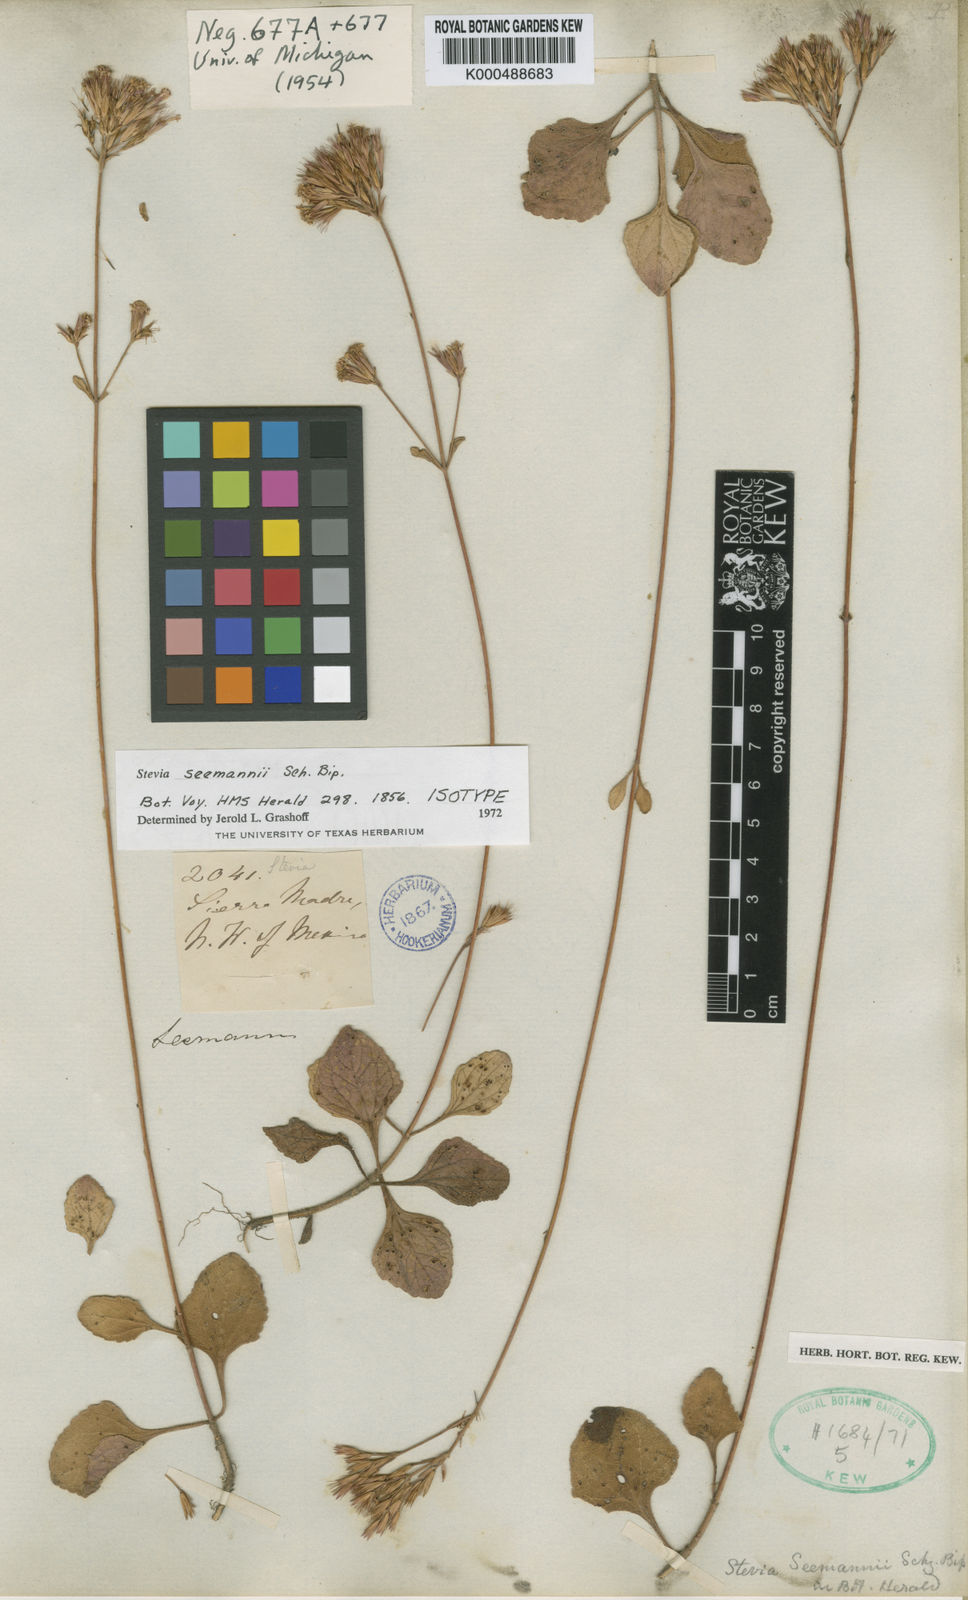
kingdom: Plantae
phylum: Tracheophyta
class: Magnoliopsida
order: Asterales
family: Asteraceae
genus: Stevia
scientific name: Stevia seemannii
